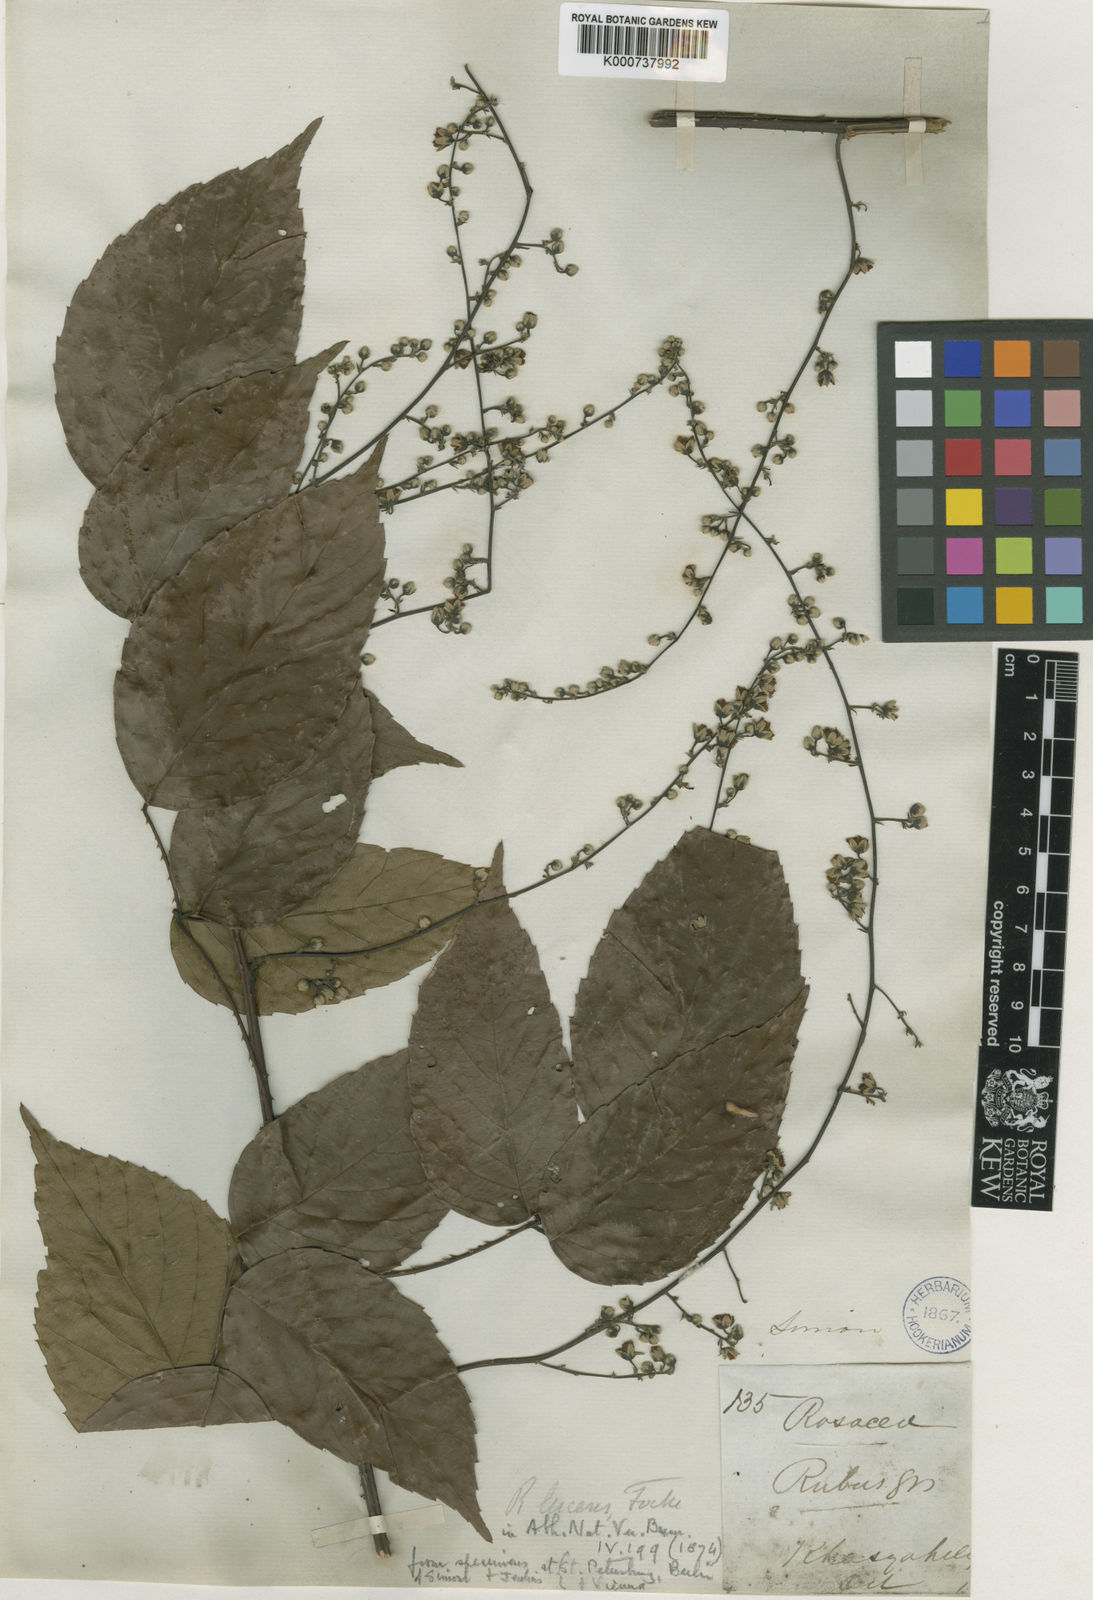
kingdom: Plantae
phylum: Tracheophyta
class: Magnoliopsida
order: Rosales
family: Rosaceae
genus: Rubus
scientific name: Rubus lucens
